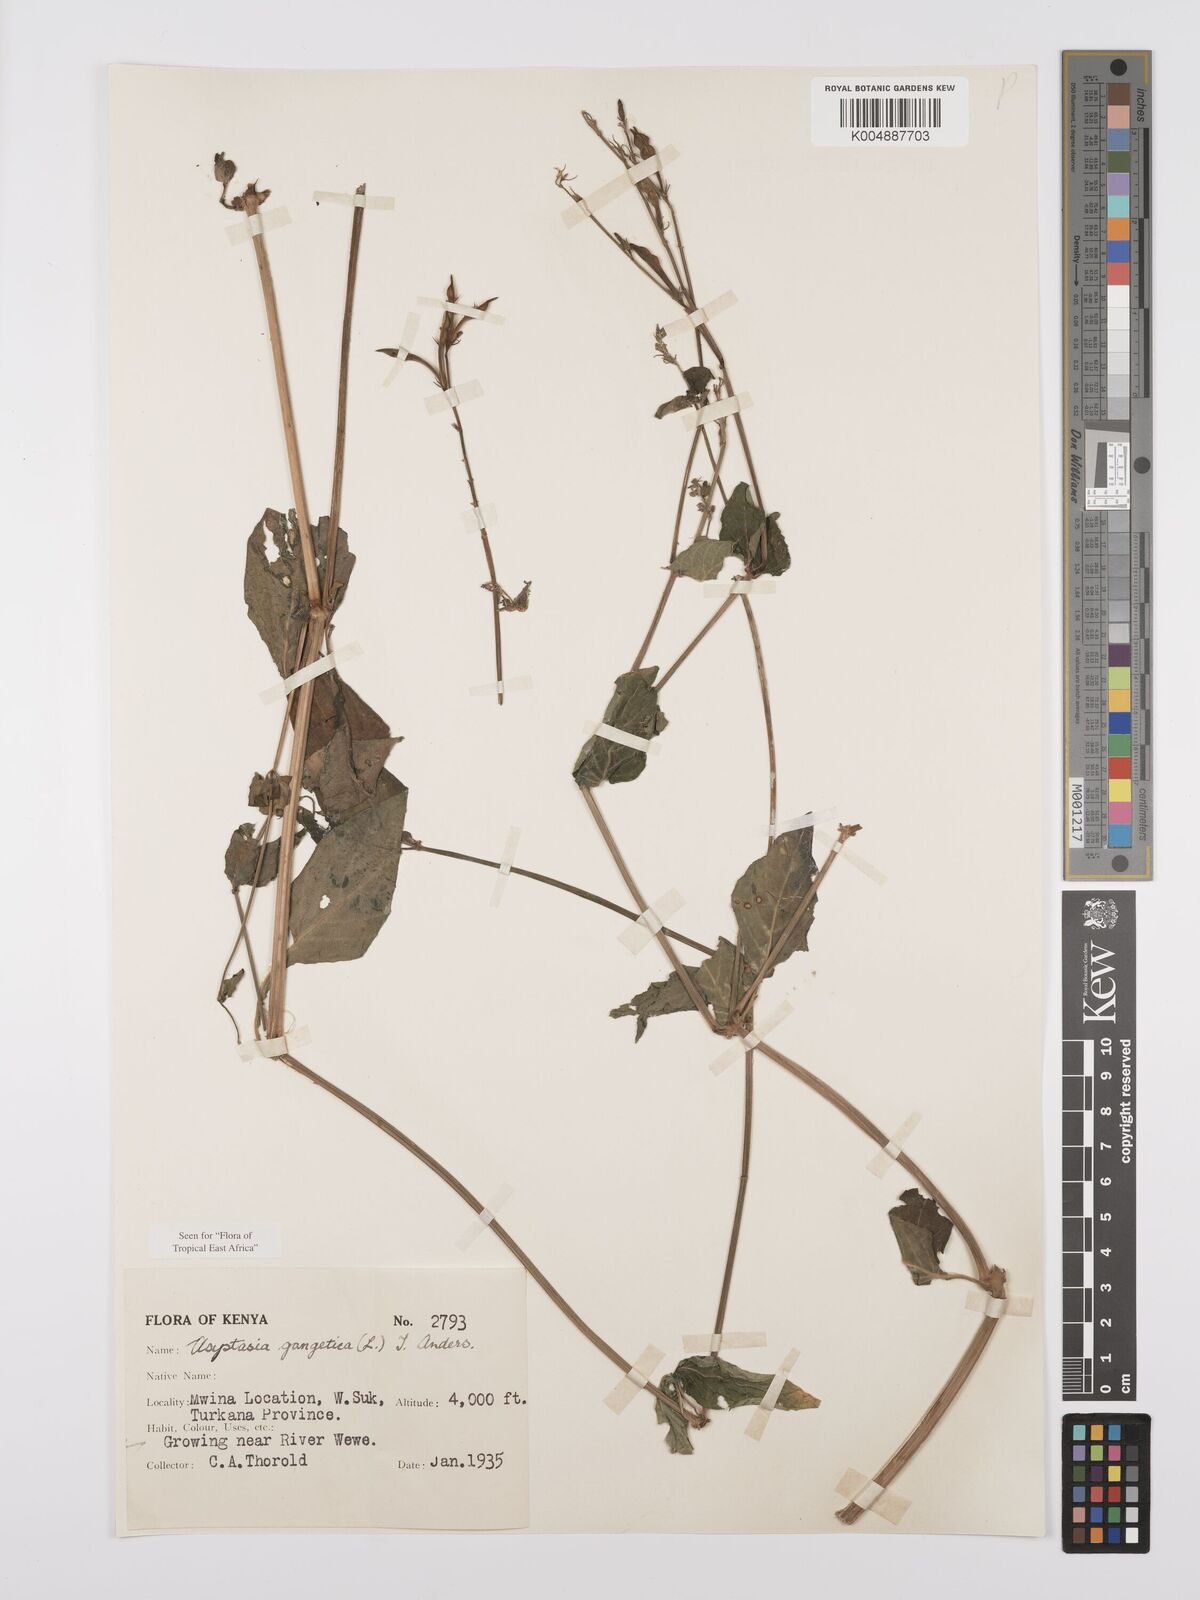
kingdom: Plantae
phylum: Tracheophyta
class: Magnoliopsida
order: Lamiales
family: Acanthaceae
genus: Asystasia
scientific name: Asystasia gangetica
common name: Chinese violet
